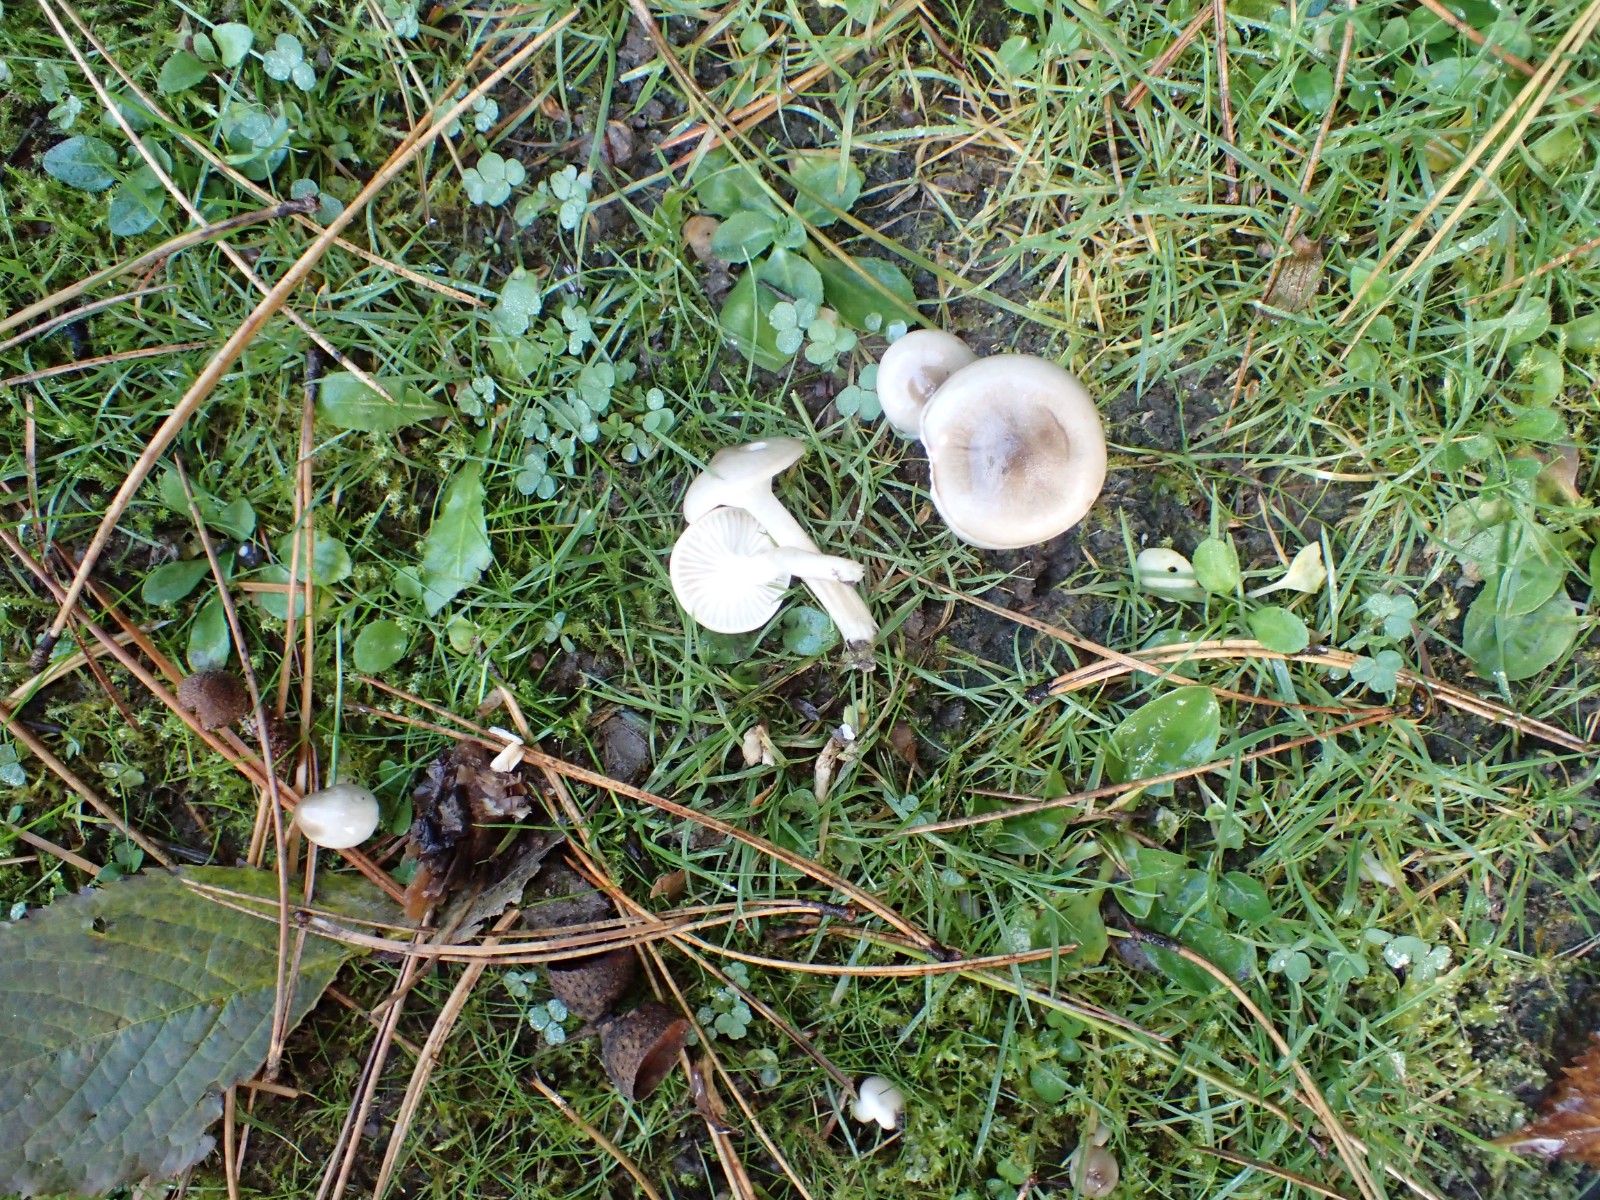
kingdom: Fungi
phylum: Basidiomycota
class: Agaricomycetes
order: Agaricales
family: Hygrophoraceae
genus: Hygrophorus
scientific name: Hygrophorus suaveolens
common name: parfumeret sneglehat
